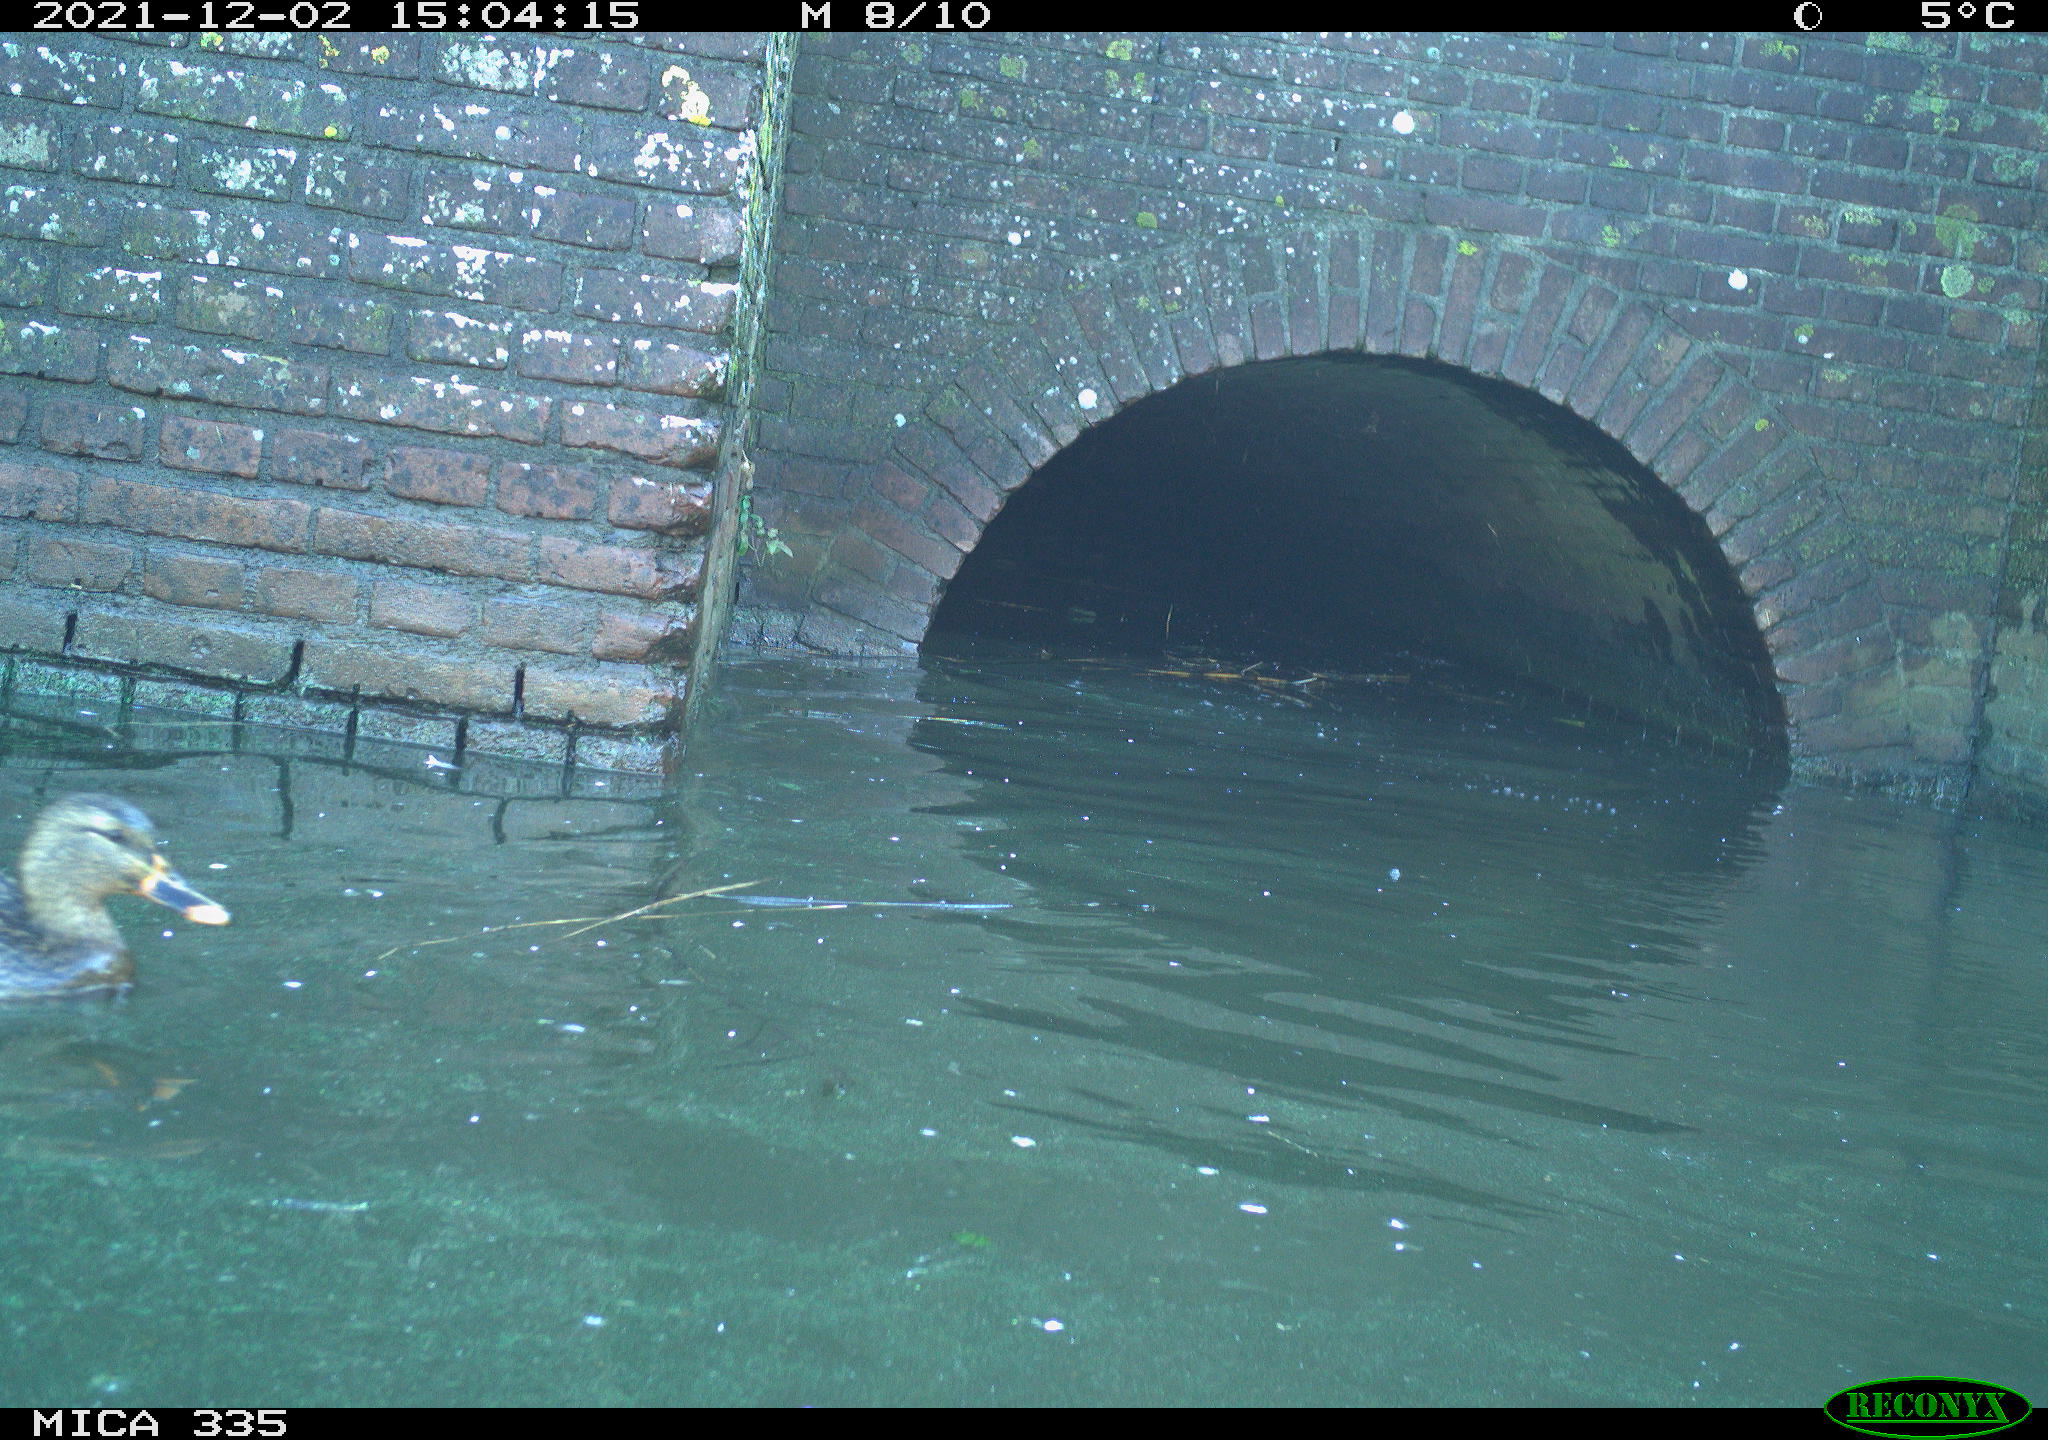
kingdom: Animalia
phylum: Chordata
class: Aves
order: Anseriformes
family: Anatidae
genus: Anas
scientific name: Anas platyrhynchos
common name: Mallard
